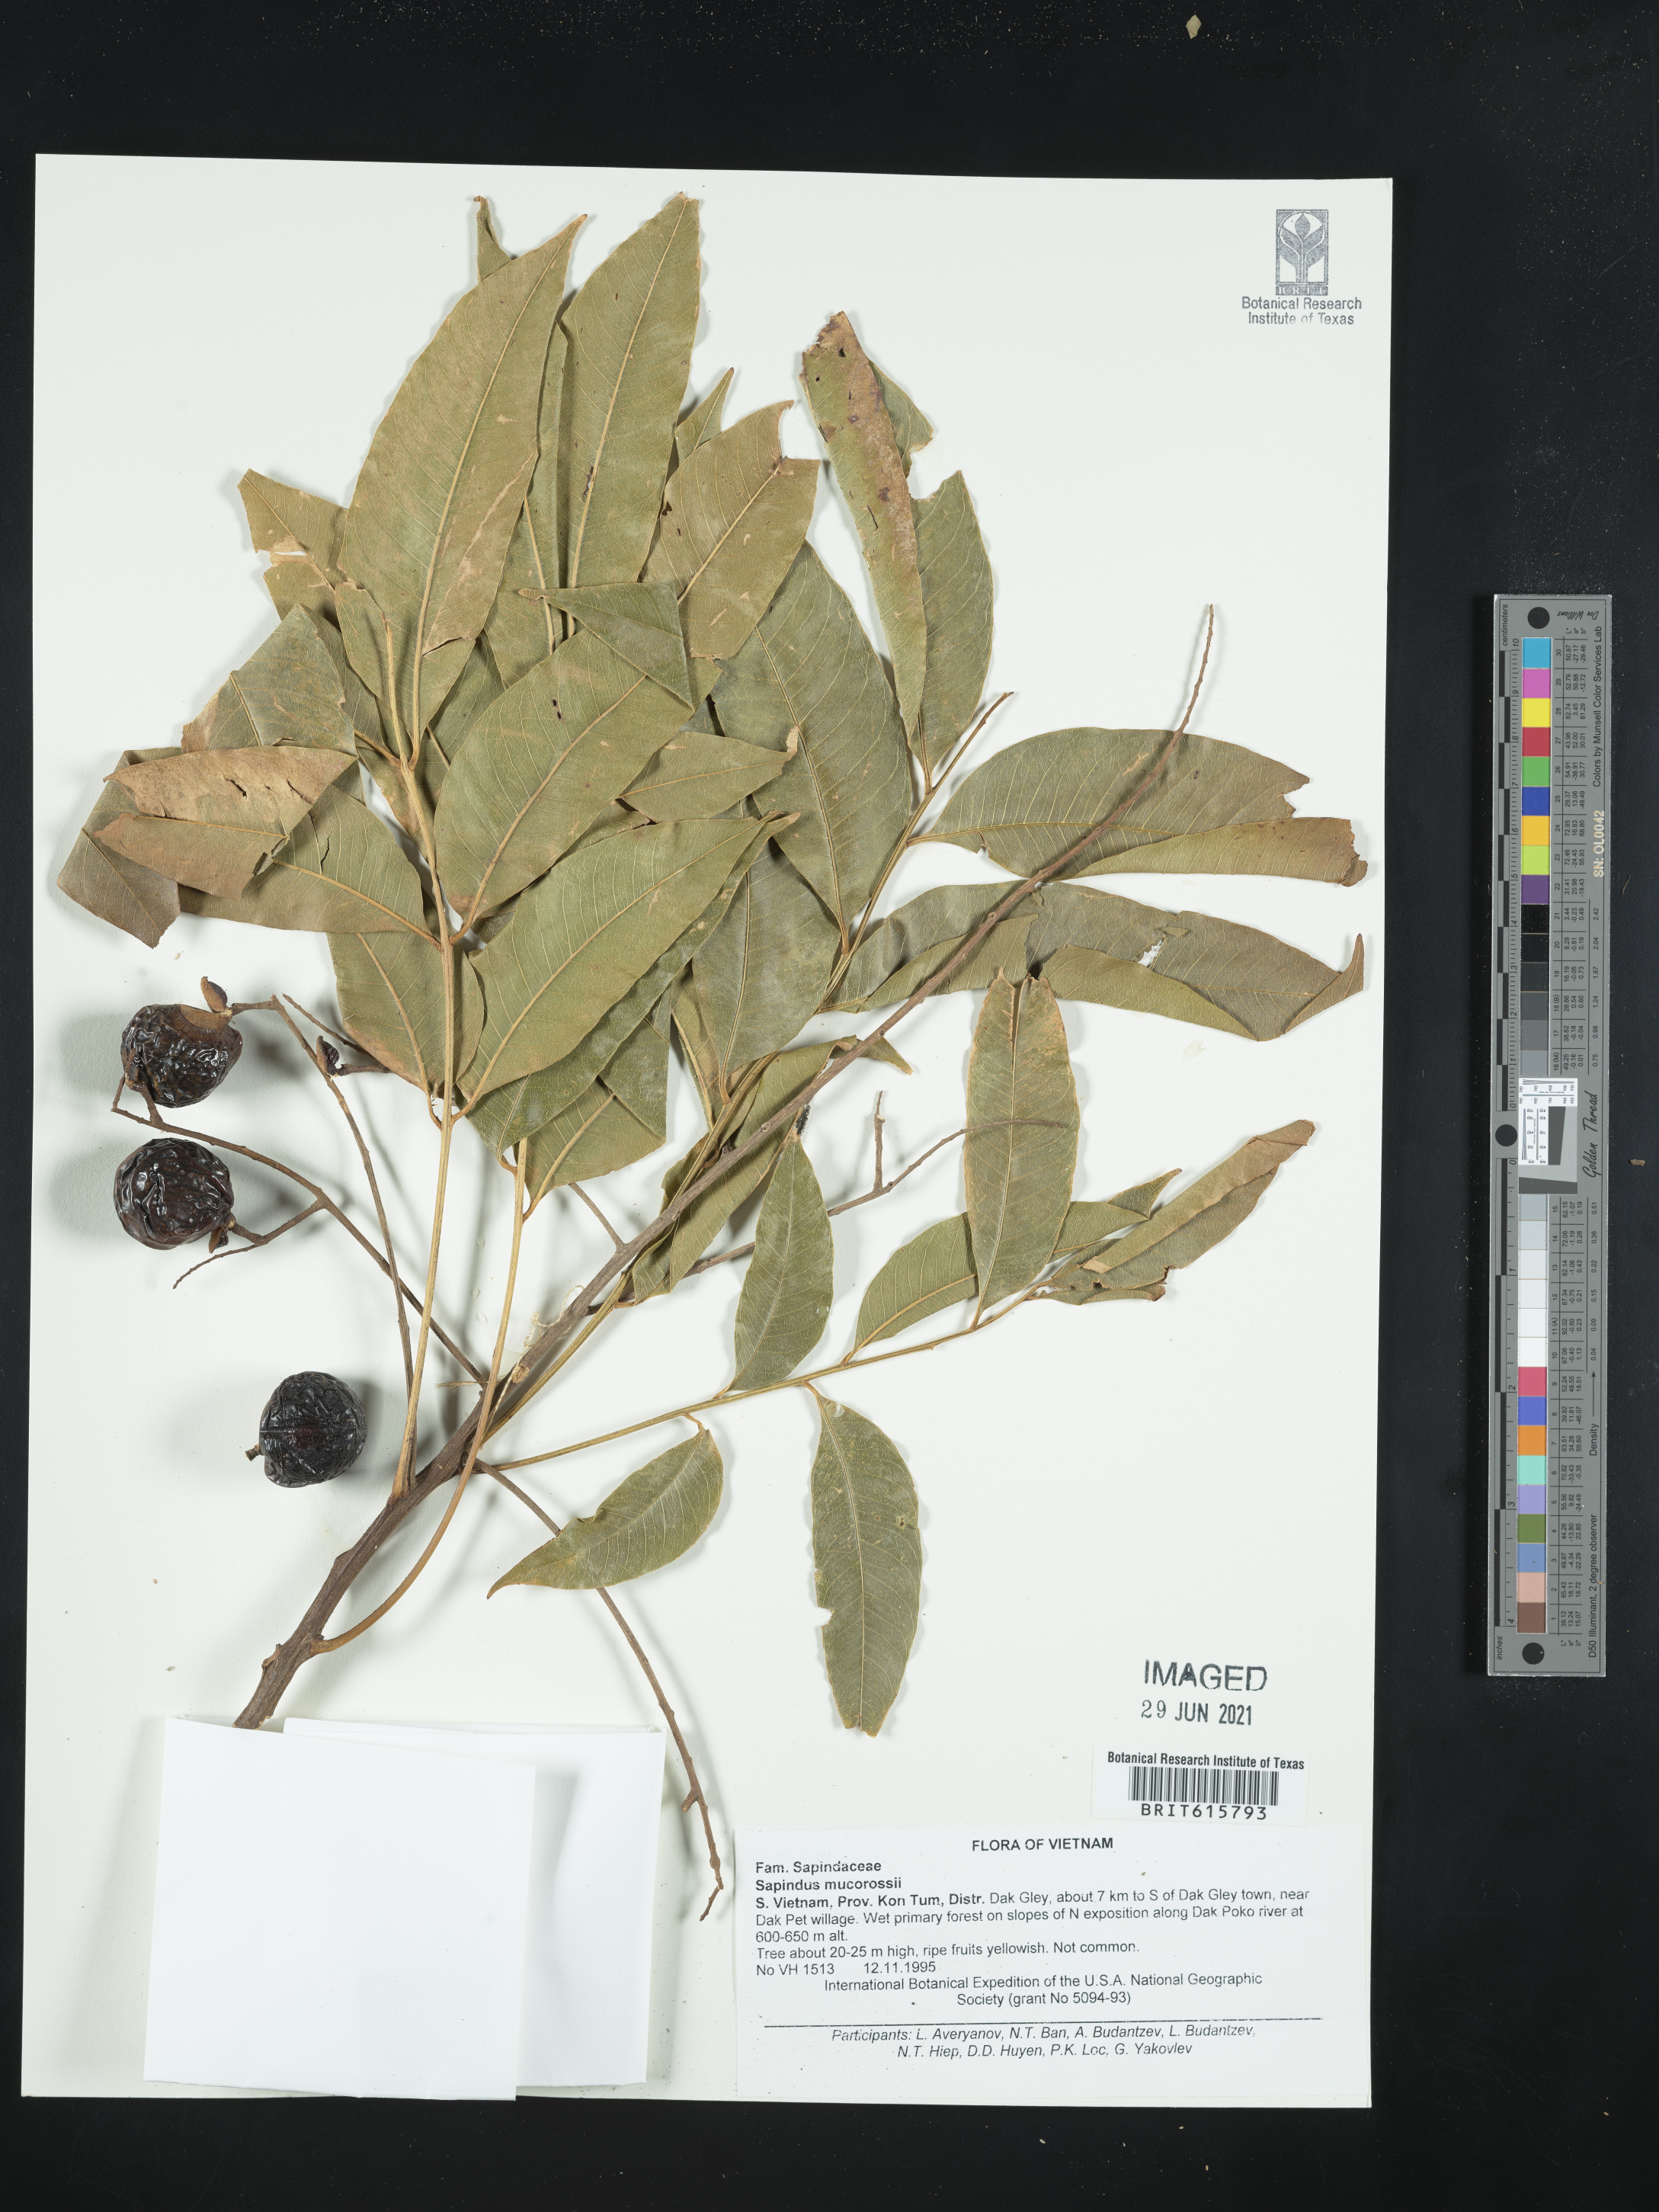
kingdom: Plantae
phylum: Tracheophyta
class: Magnoliopsida
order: Sapindales
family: Sapindaceae
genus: Sapindus
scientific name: Sapindus mukorossi
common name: Chinese soapberry
